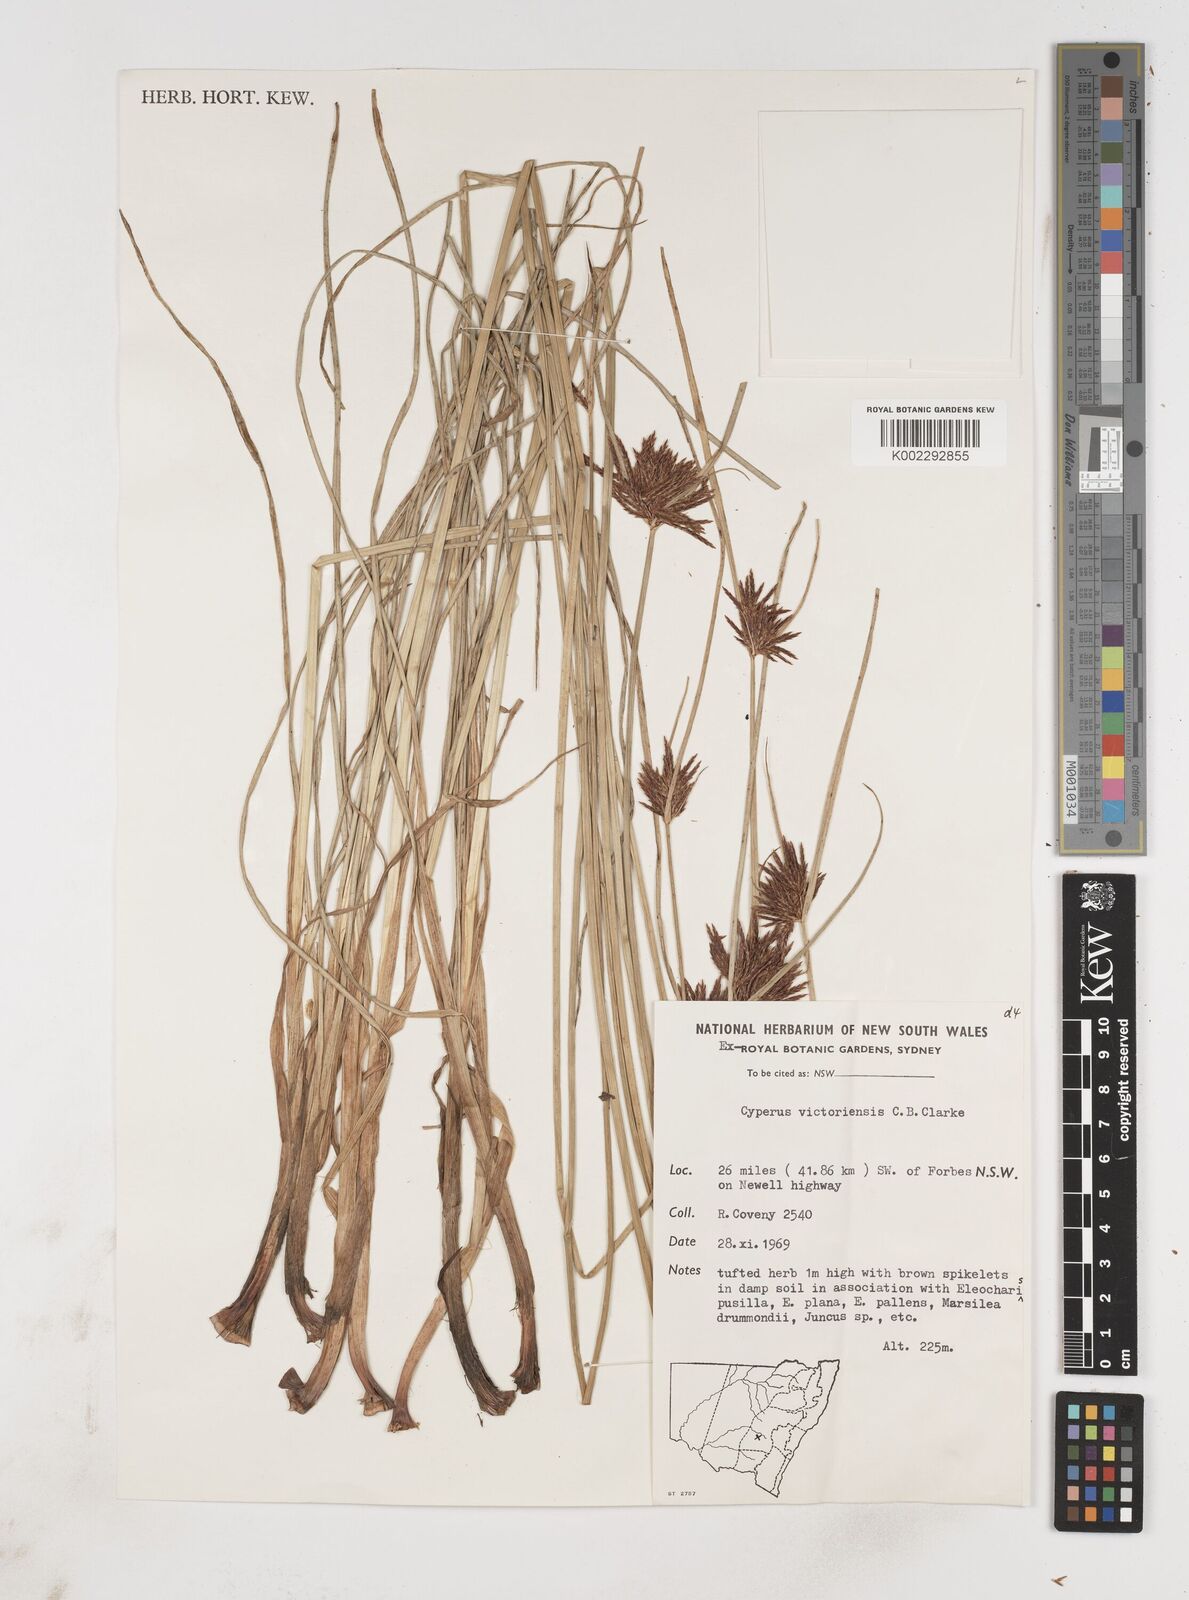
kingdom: Plantae
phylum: Tracheophyta
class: Liliopsida
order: Poales
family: Cyperaceae
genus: Cyperus
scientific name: Cyperus victoriensis
